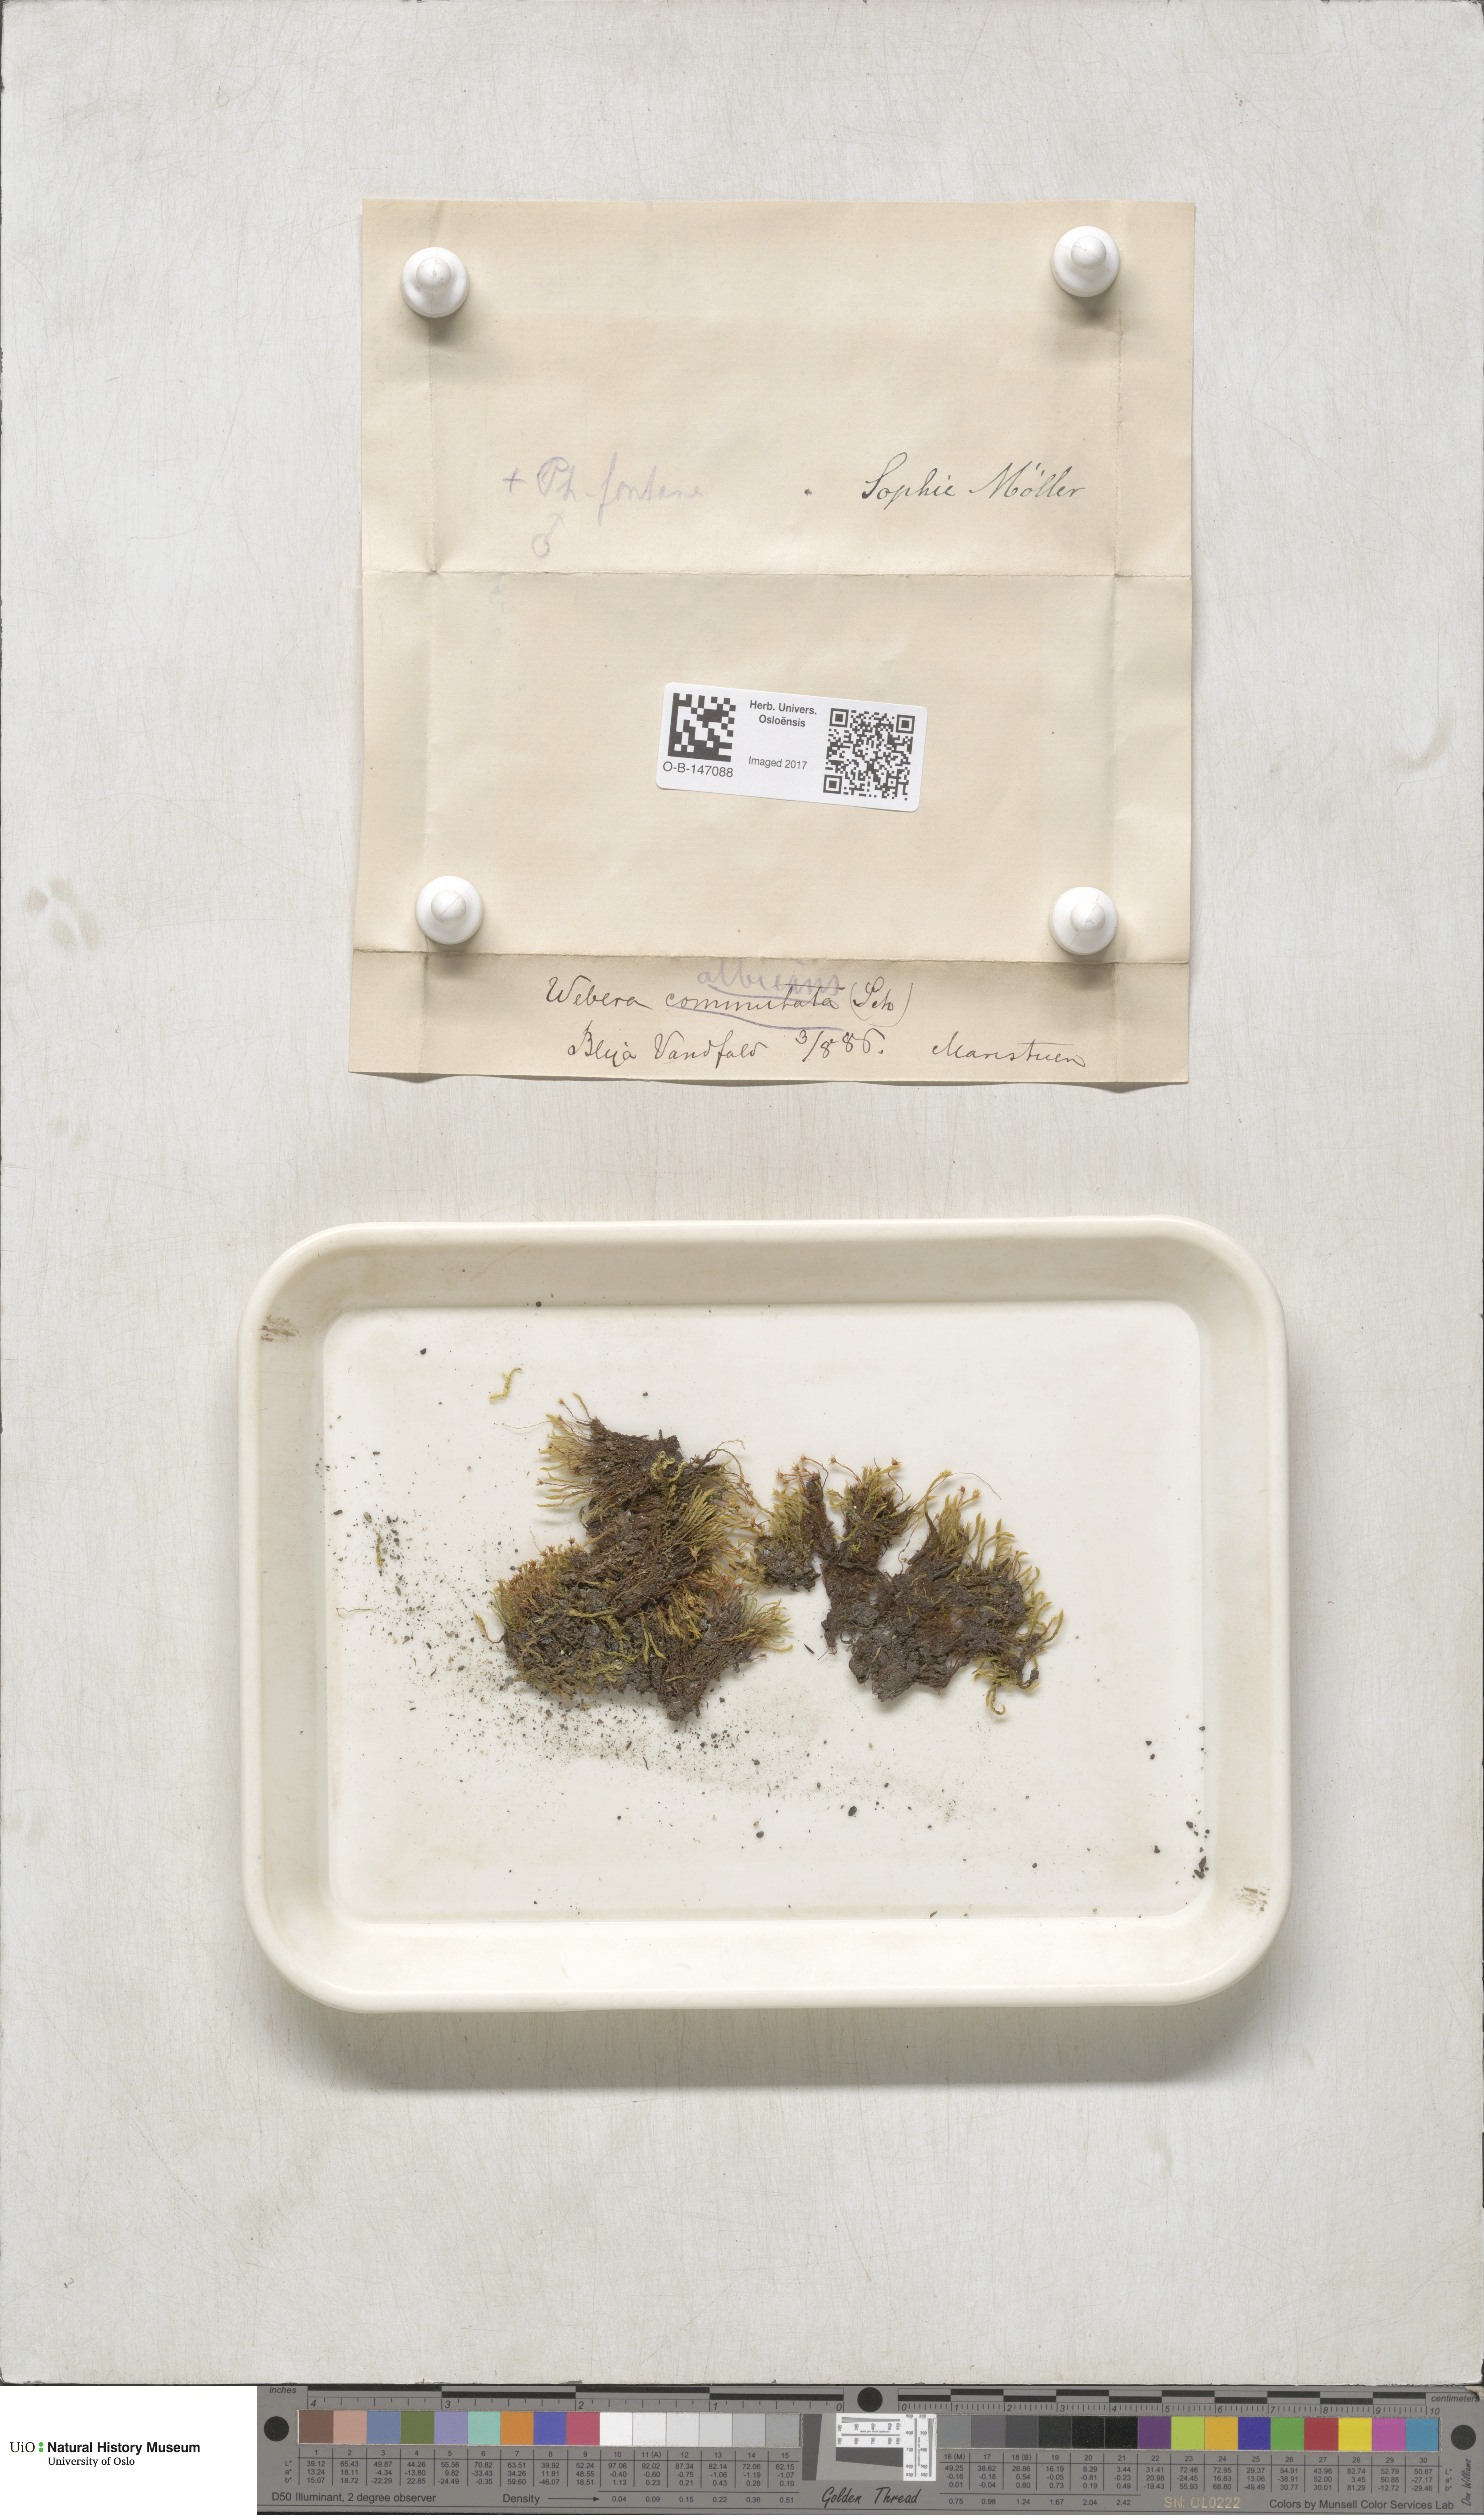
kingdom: Plantae
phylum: Bryophyta
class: Bryopsida
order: Bryales
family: Mniaceae
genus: Pohlia
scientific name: Pohlia wahlenbergii
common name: Wahlenberg's nodding moss
